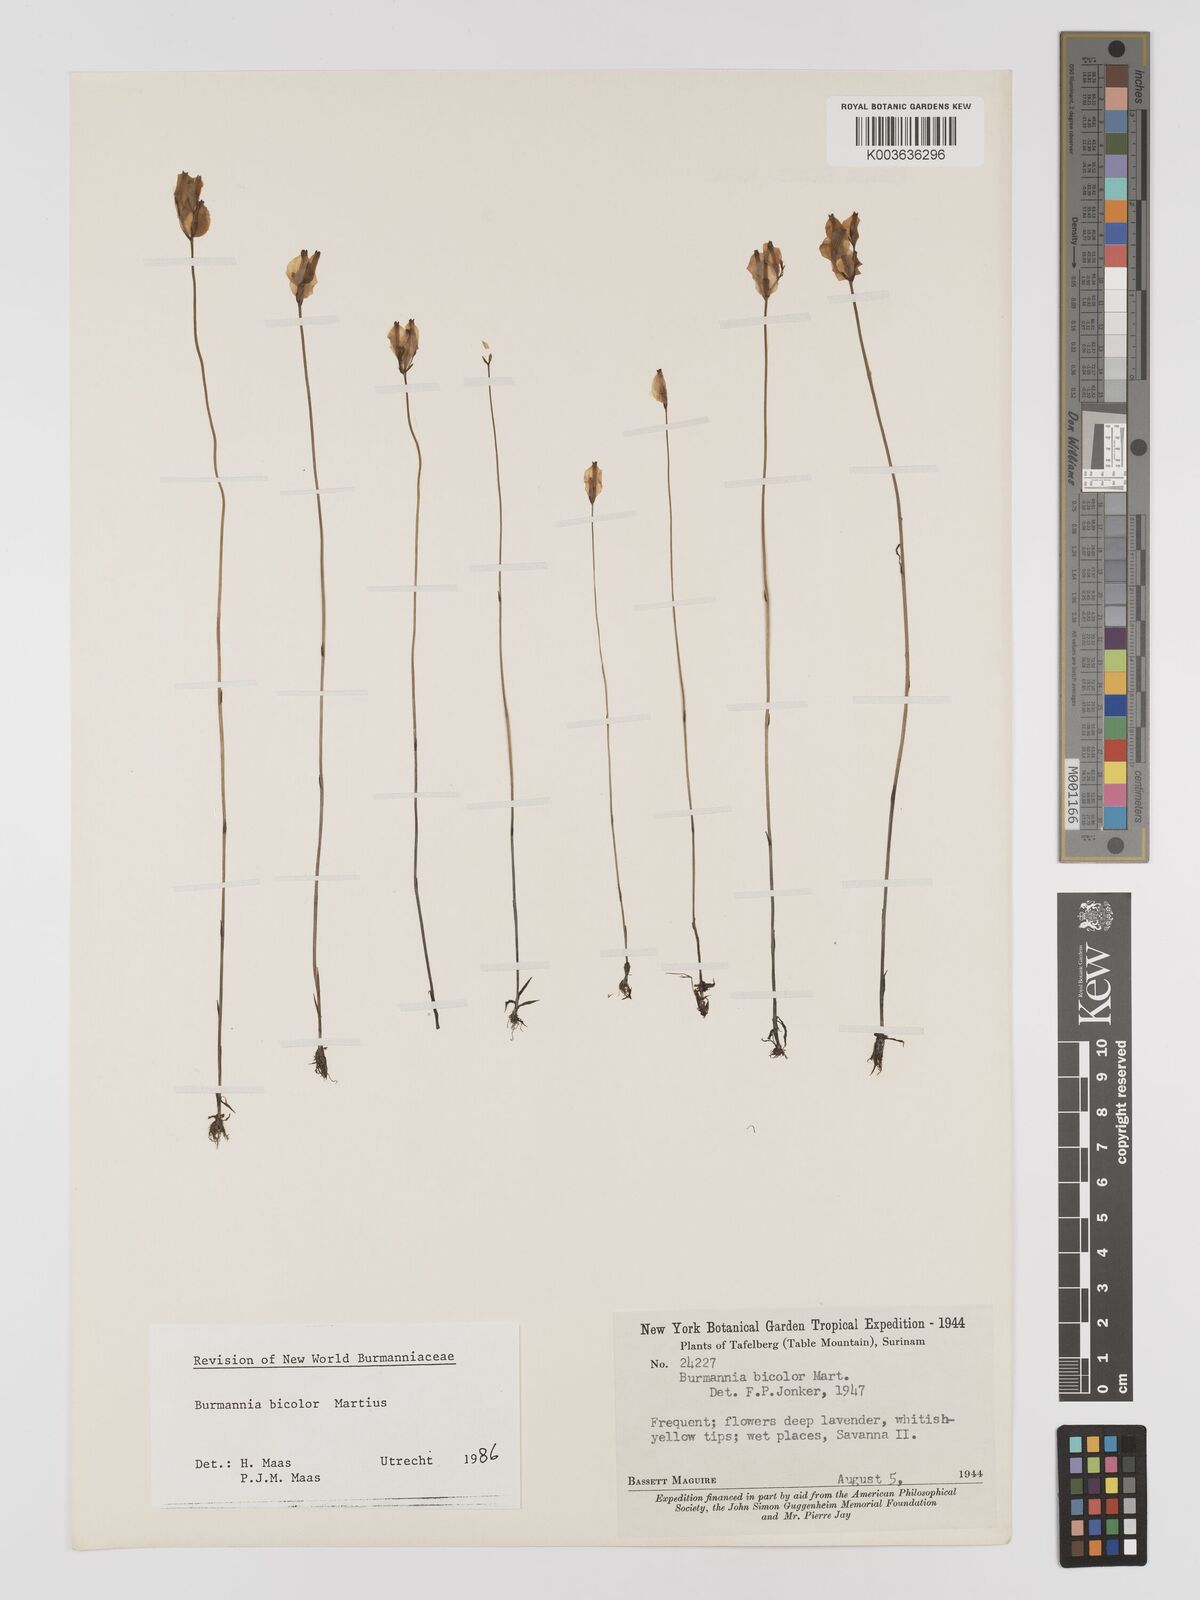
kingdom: Plantae
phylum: Tracheophyta
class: Liliopsida
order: Dioscoreales
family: Burmanniaceae
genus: Burmannia
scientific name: Burmannia bicolor
